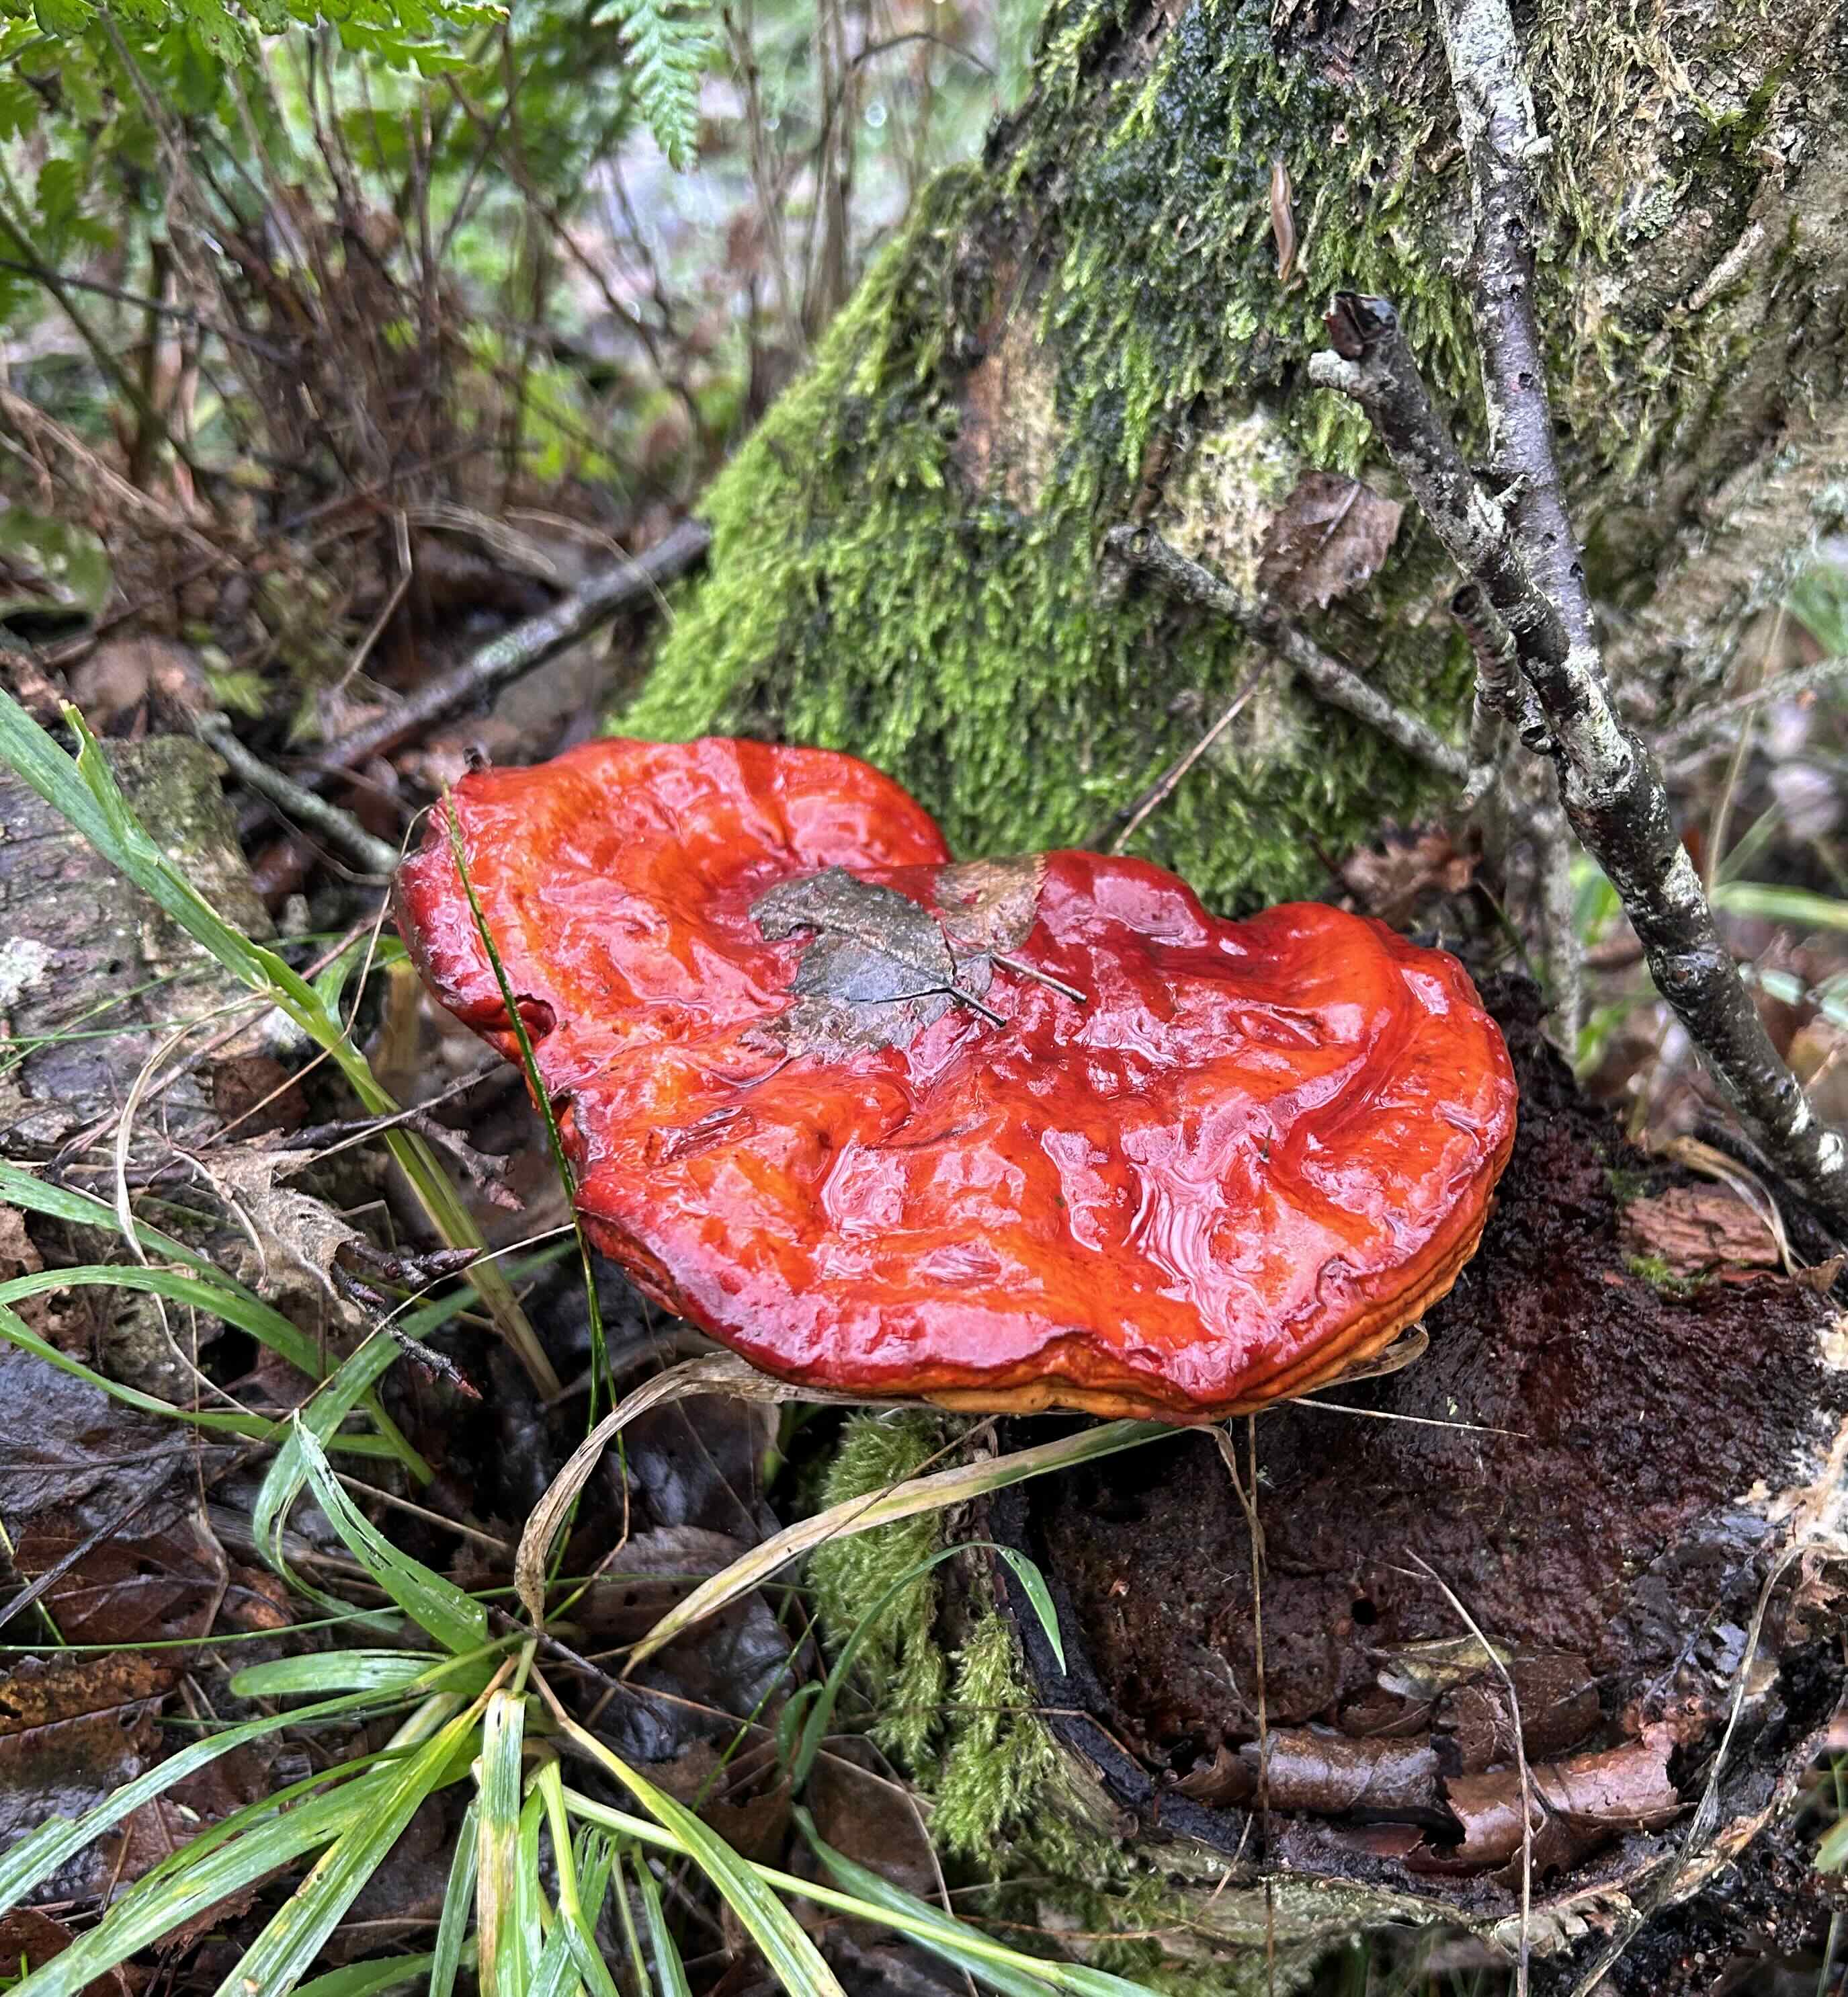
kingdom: Fungi
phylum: Basidiomycota
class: Agaricomycetes
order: Polyporales
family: Polyporaceae
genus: Ganoderma
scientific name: Ganoderma lucidum
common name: skinnende lakporesvamp
